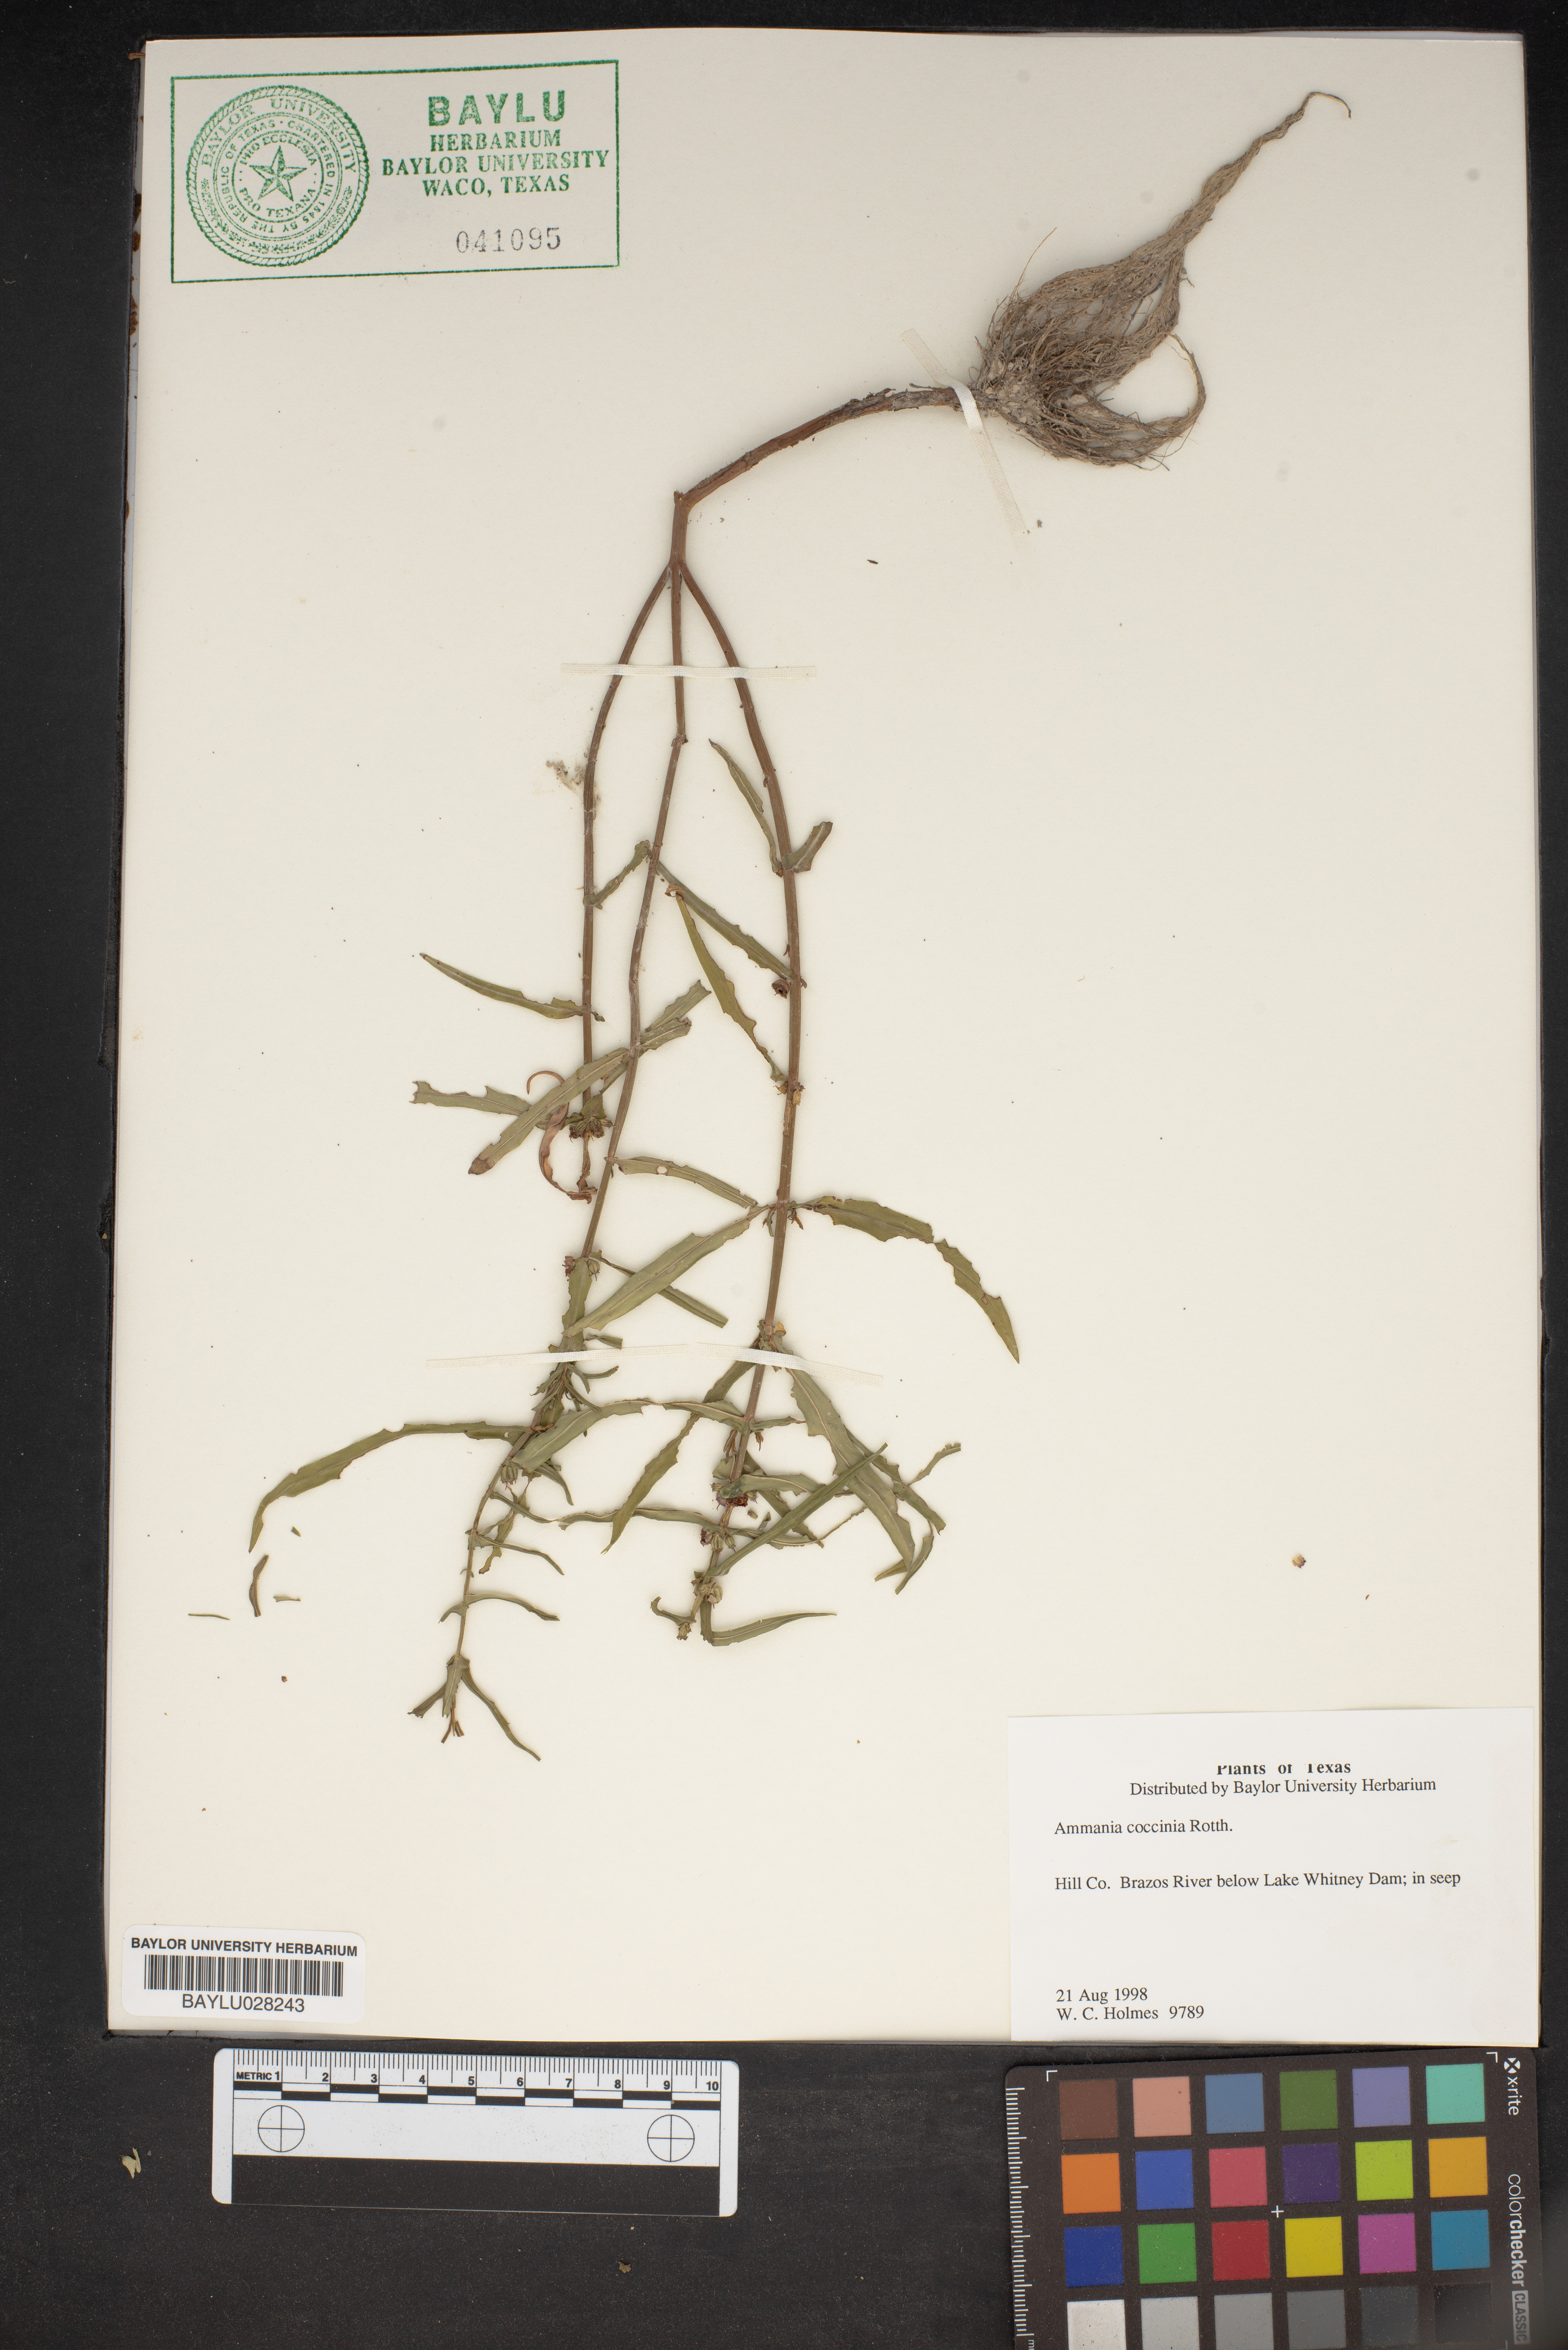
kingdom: Plantae
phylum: Tracheophyta
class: Magnoliopsida
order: Myrtales
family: Lythraceae
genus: Ammannia
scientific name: Ammannia coccinea
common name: Valley redstem
